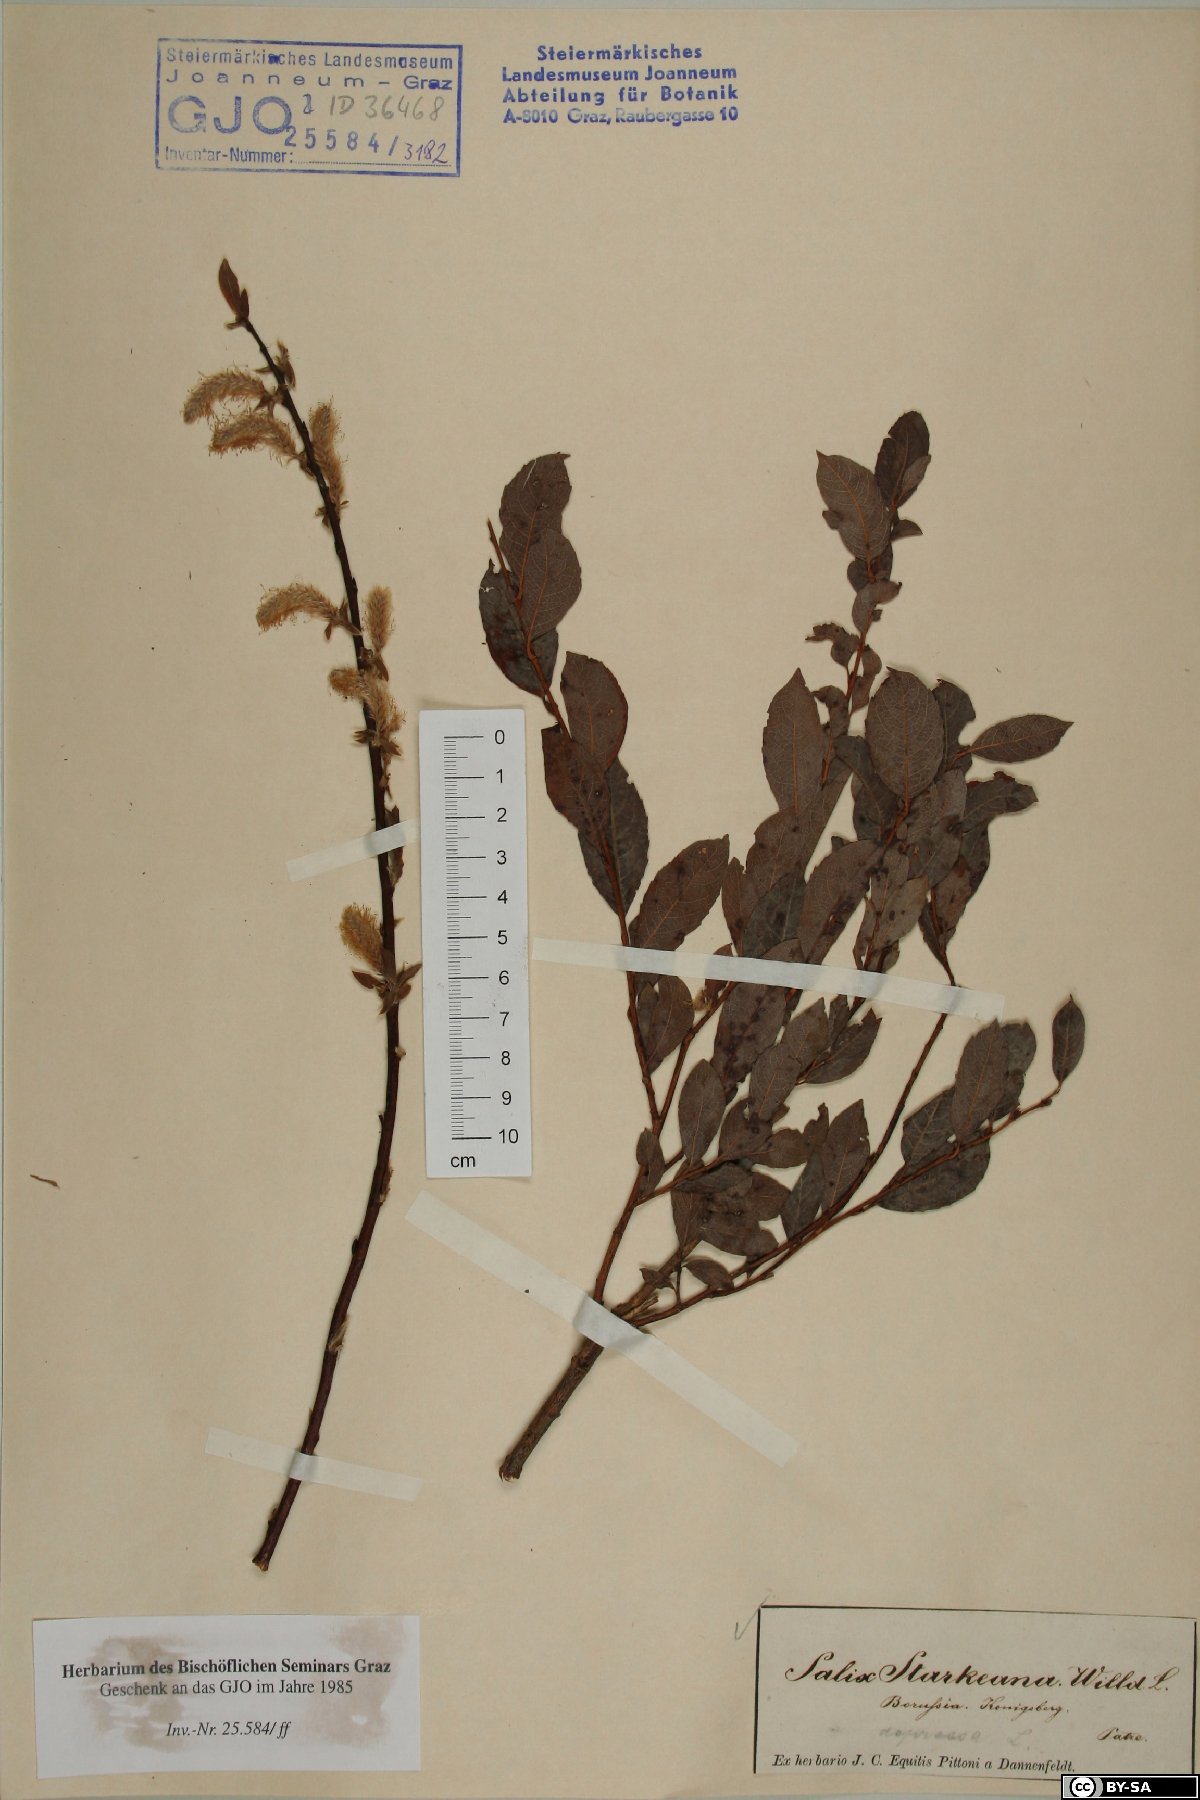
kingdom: Plantae
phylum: Tracheophyta
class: Magnoliopsida
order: Malpighiales
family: Salicaceae
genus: Salix
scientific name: Salix starkeana
